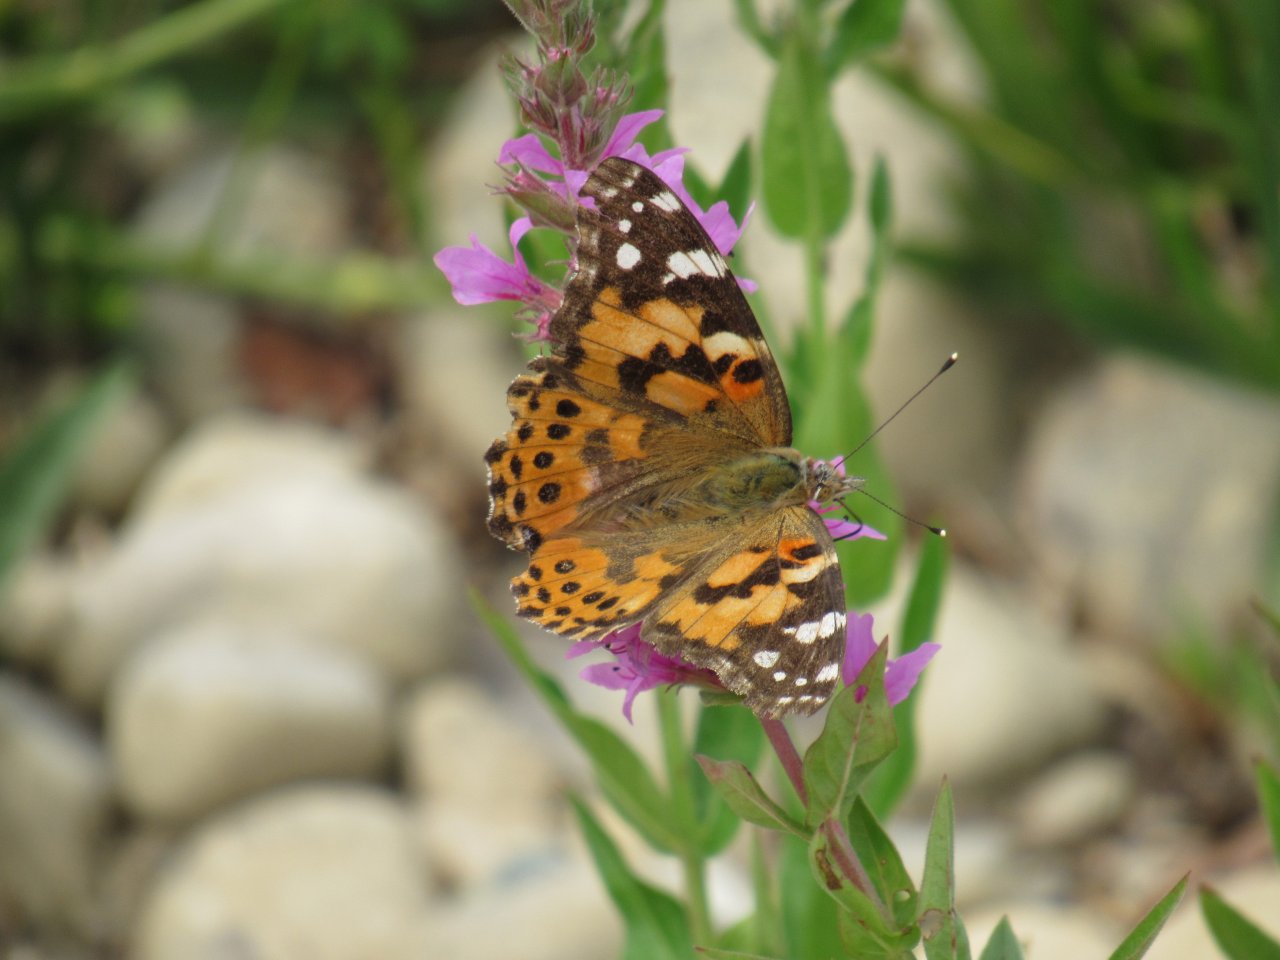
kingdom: Animalia
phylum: Arthropoda
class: Insecta
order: Lepidoptera
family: Nymphalidae
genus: Vanessa
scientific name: Vanessa cardui
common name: Painted Lady
